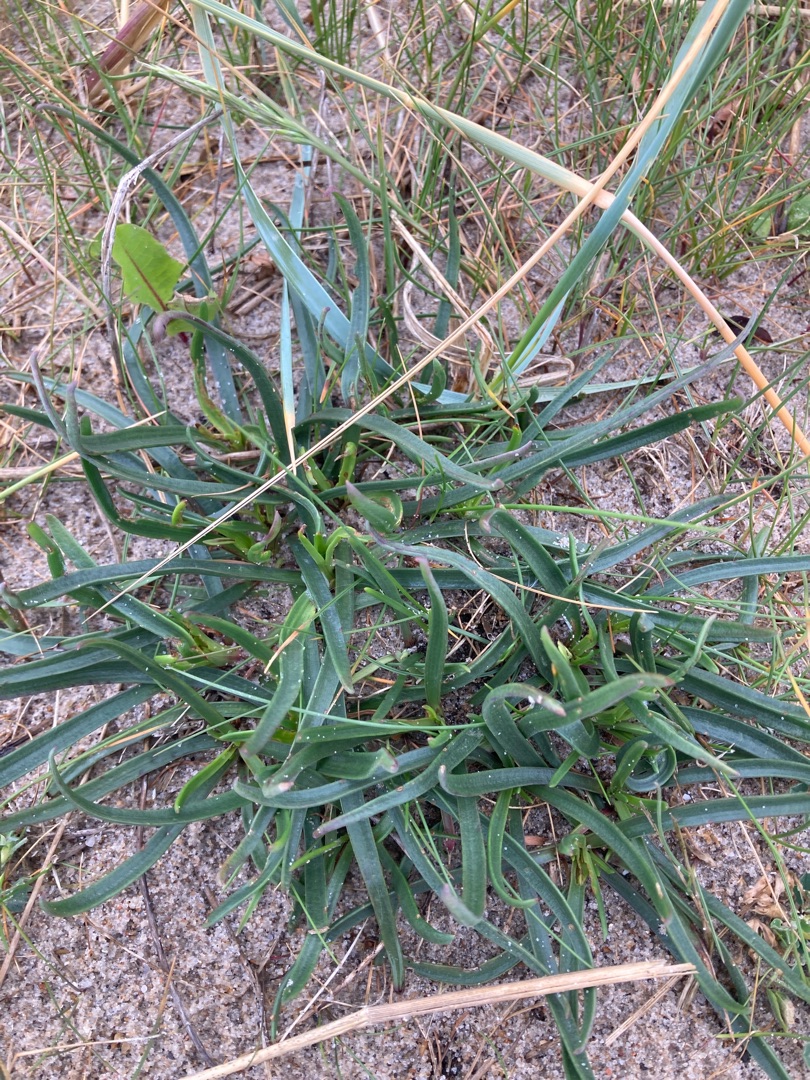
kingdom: Plantae
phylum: Tracheophyta
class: Magnoliopsida
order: Lamiales
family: Plantaginaceae
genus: Plantago
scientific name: Plantago maritima
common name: Strand-vejbred
